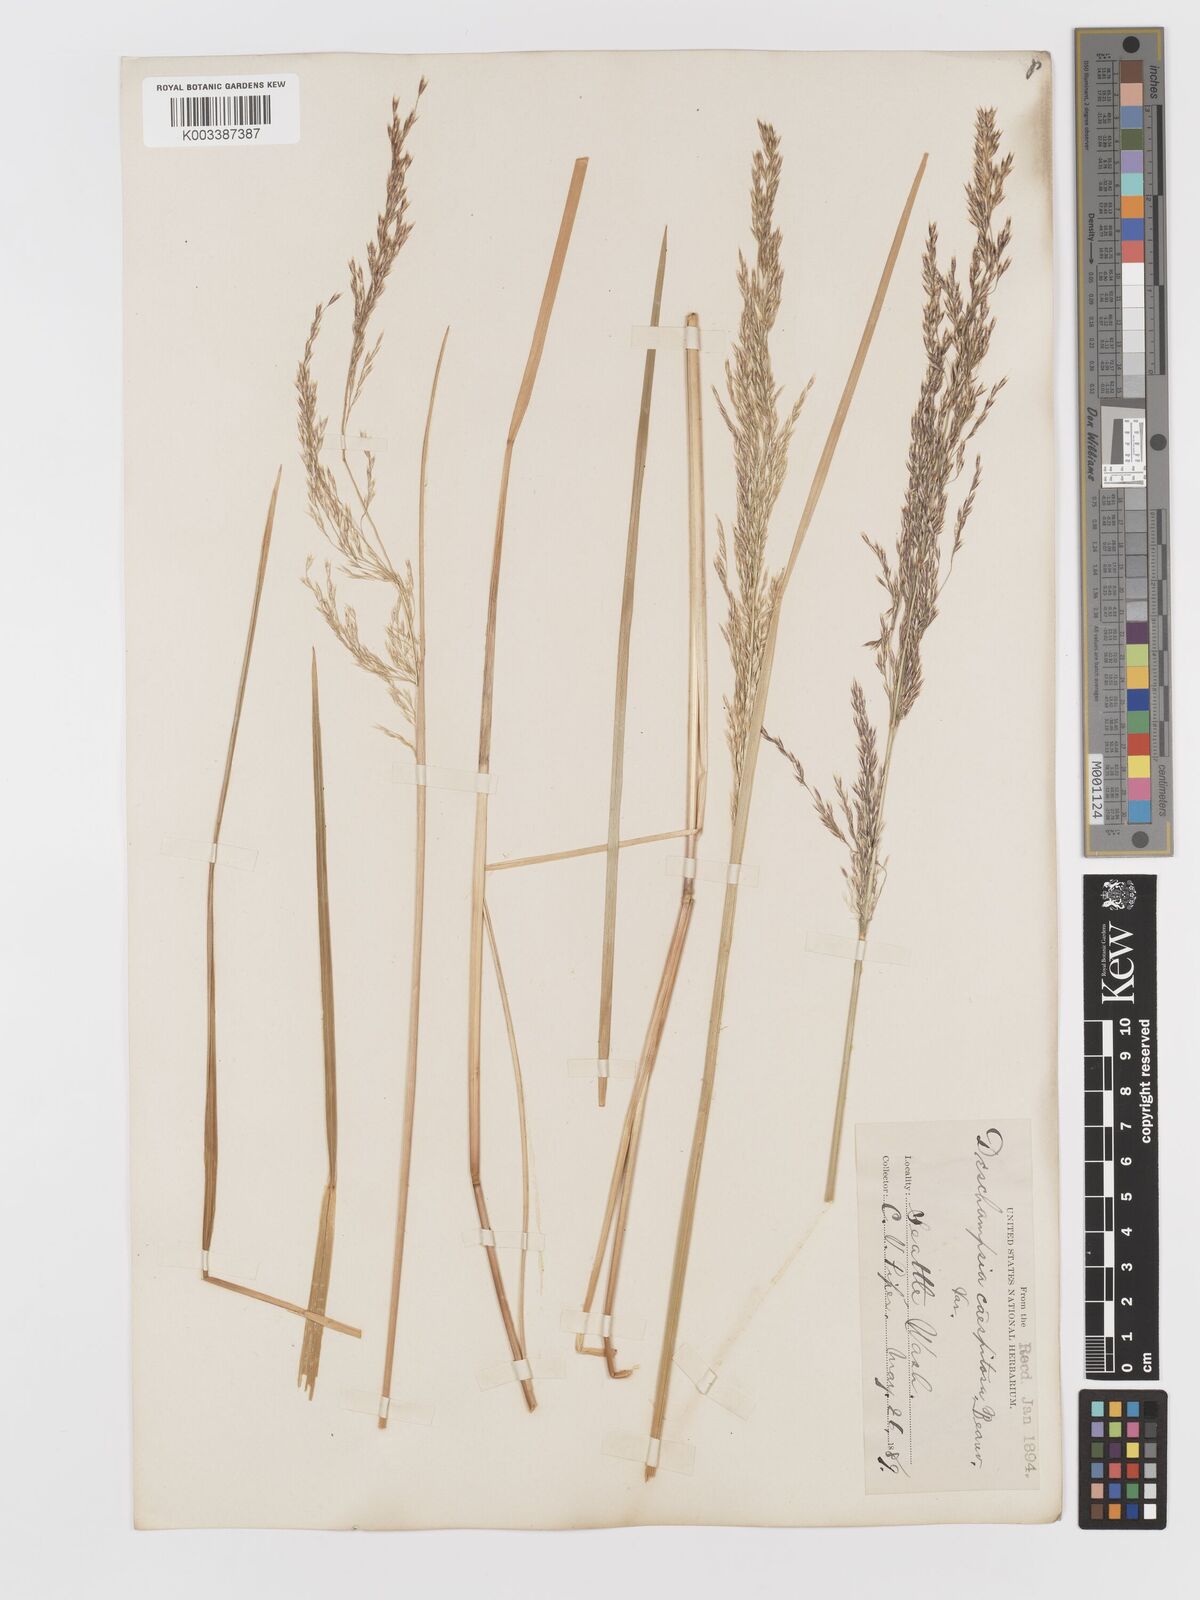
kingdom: Plantae
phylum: Tracheophyta
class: Liliopsida
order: Poales
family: Poaceae
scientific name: Poaceae
